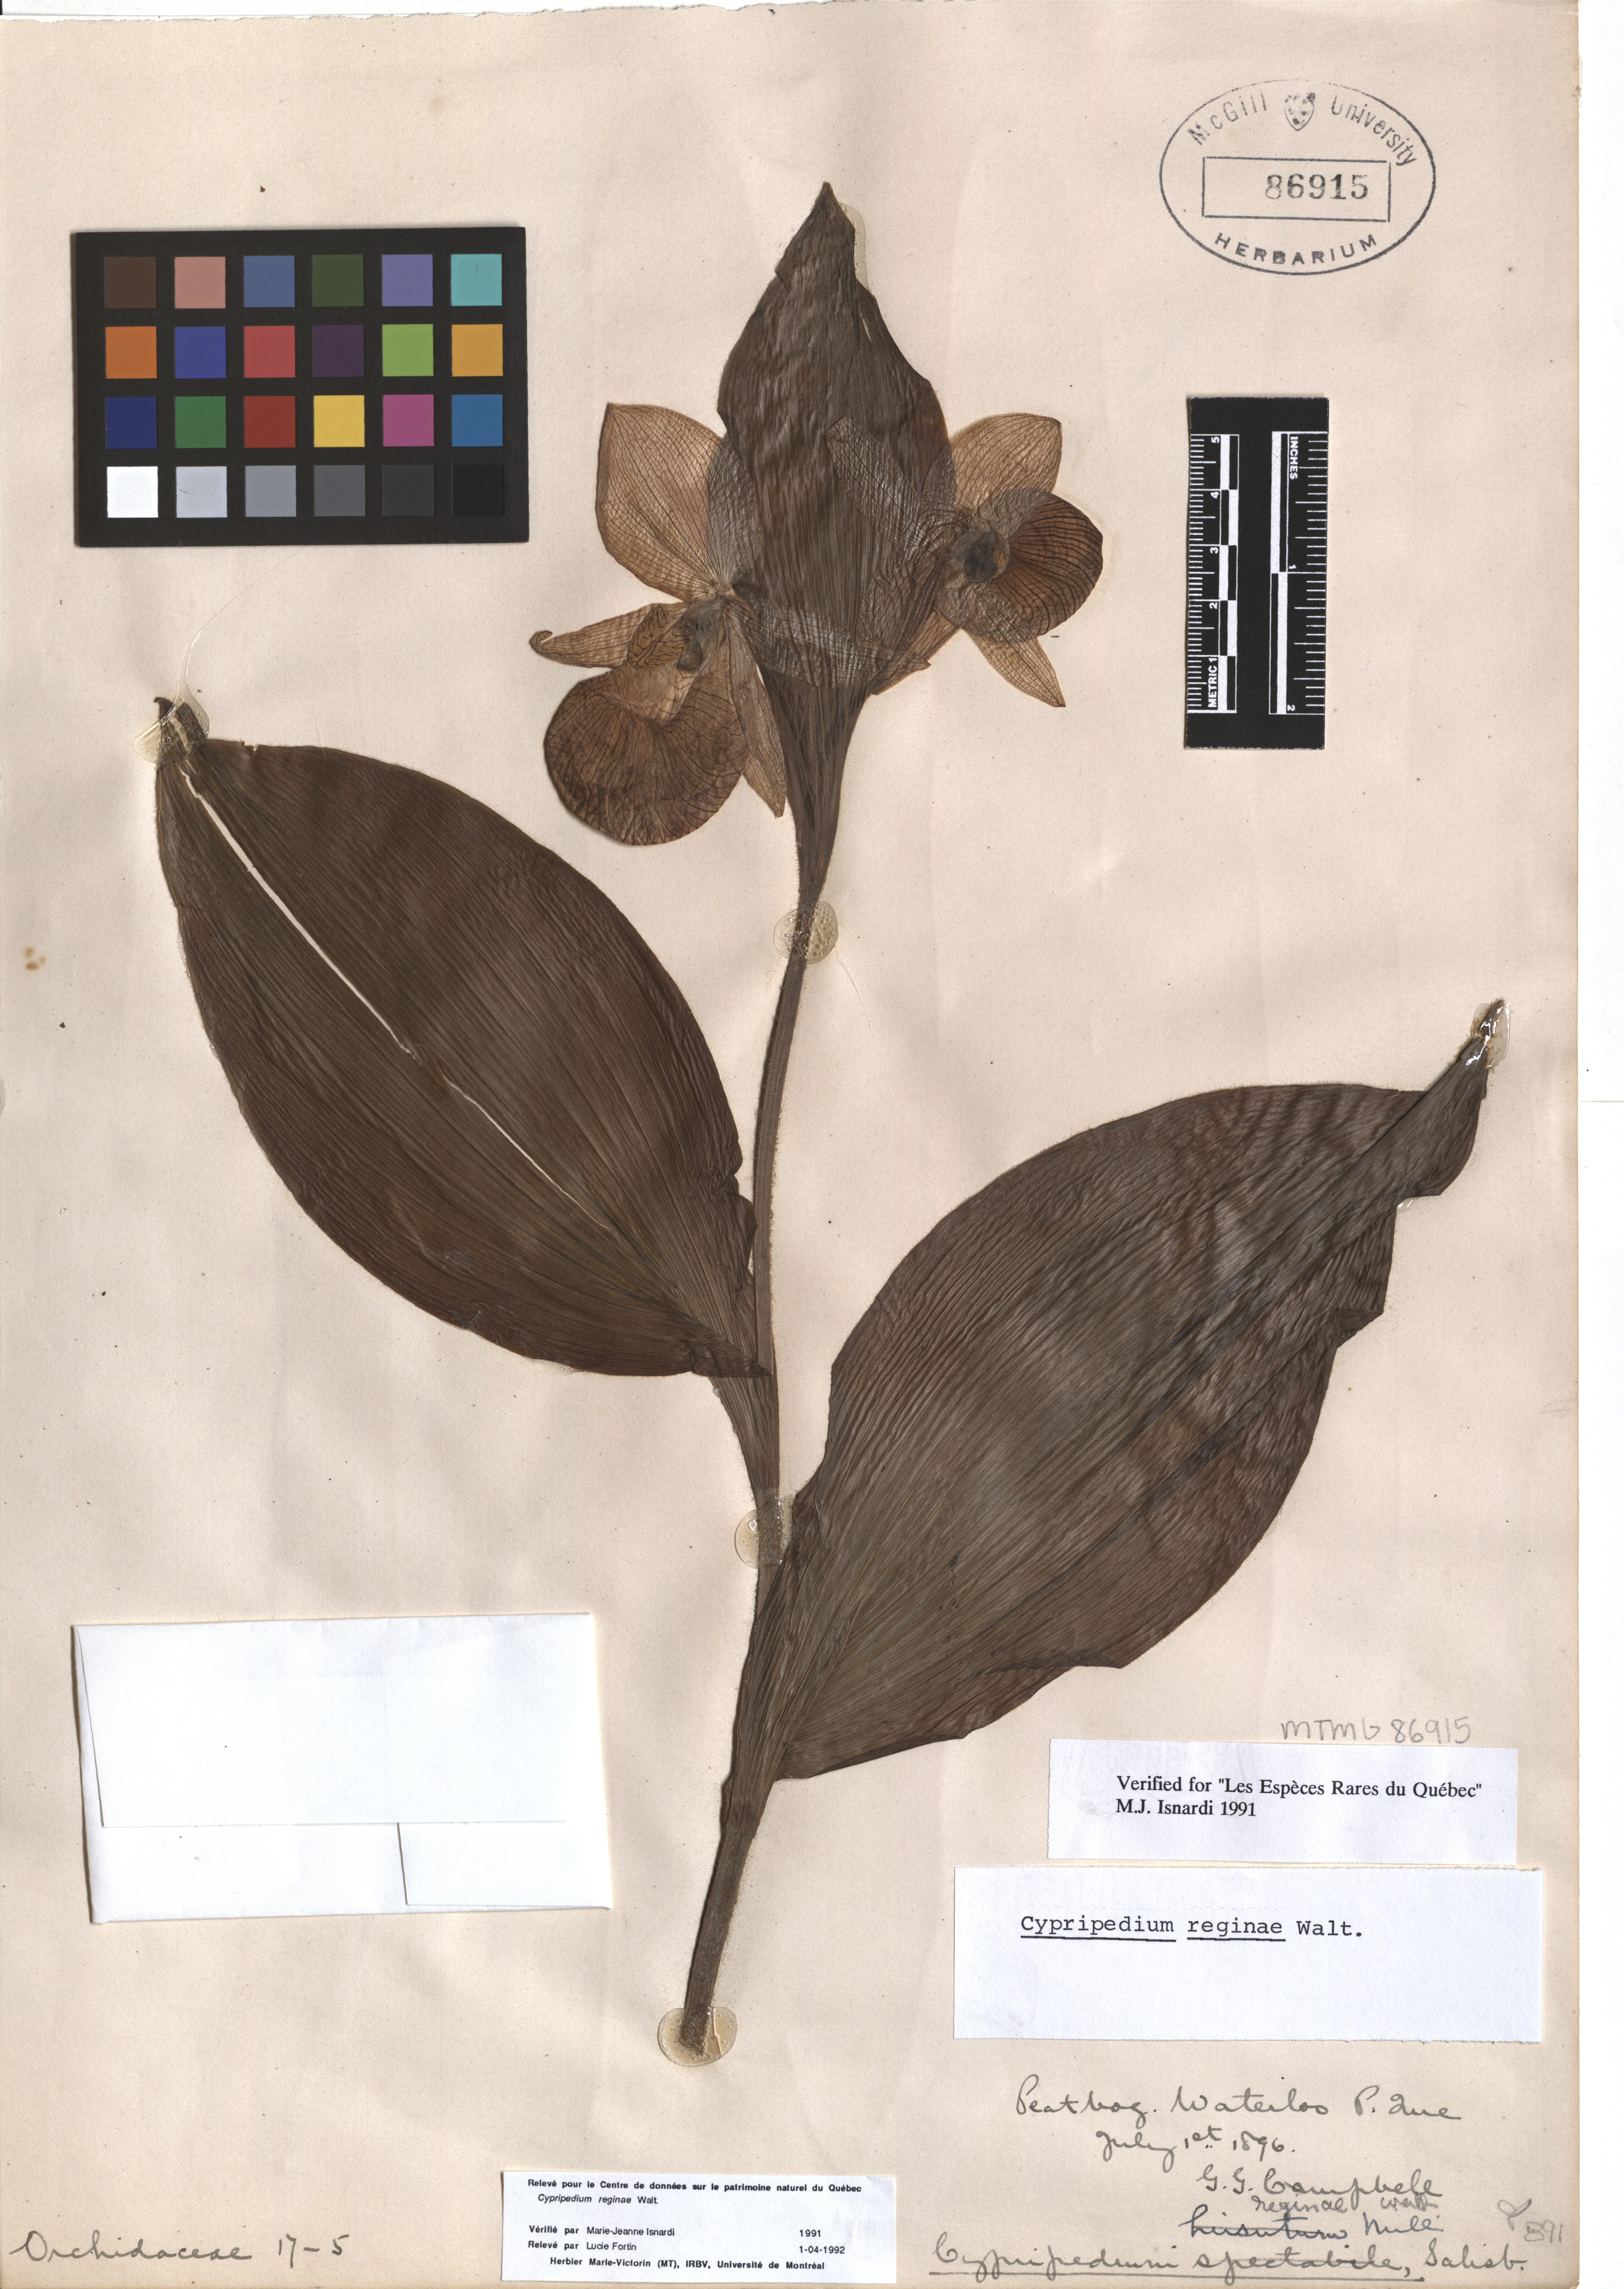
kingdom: Plantae
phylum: Tracheophyta
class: Liliopsida
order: Asparagales
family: Orchidaceae
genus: Cypripedium
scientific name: Cypripedium reginae
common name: Queen lady's-slipper
